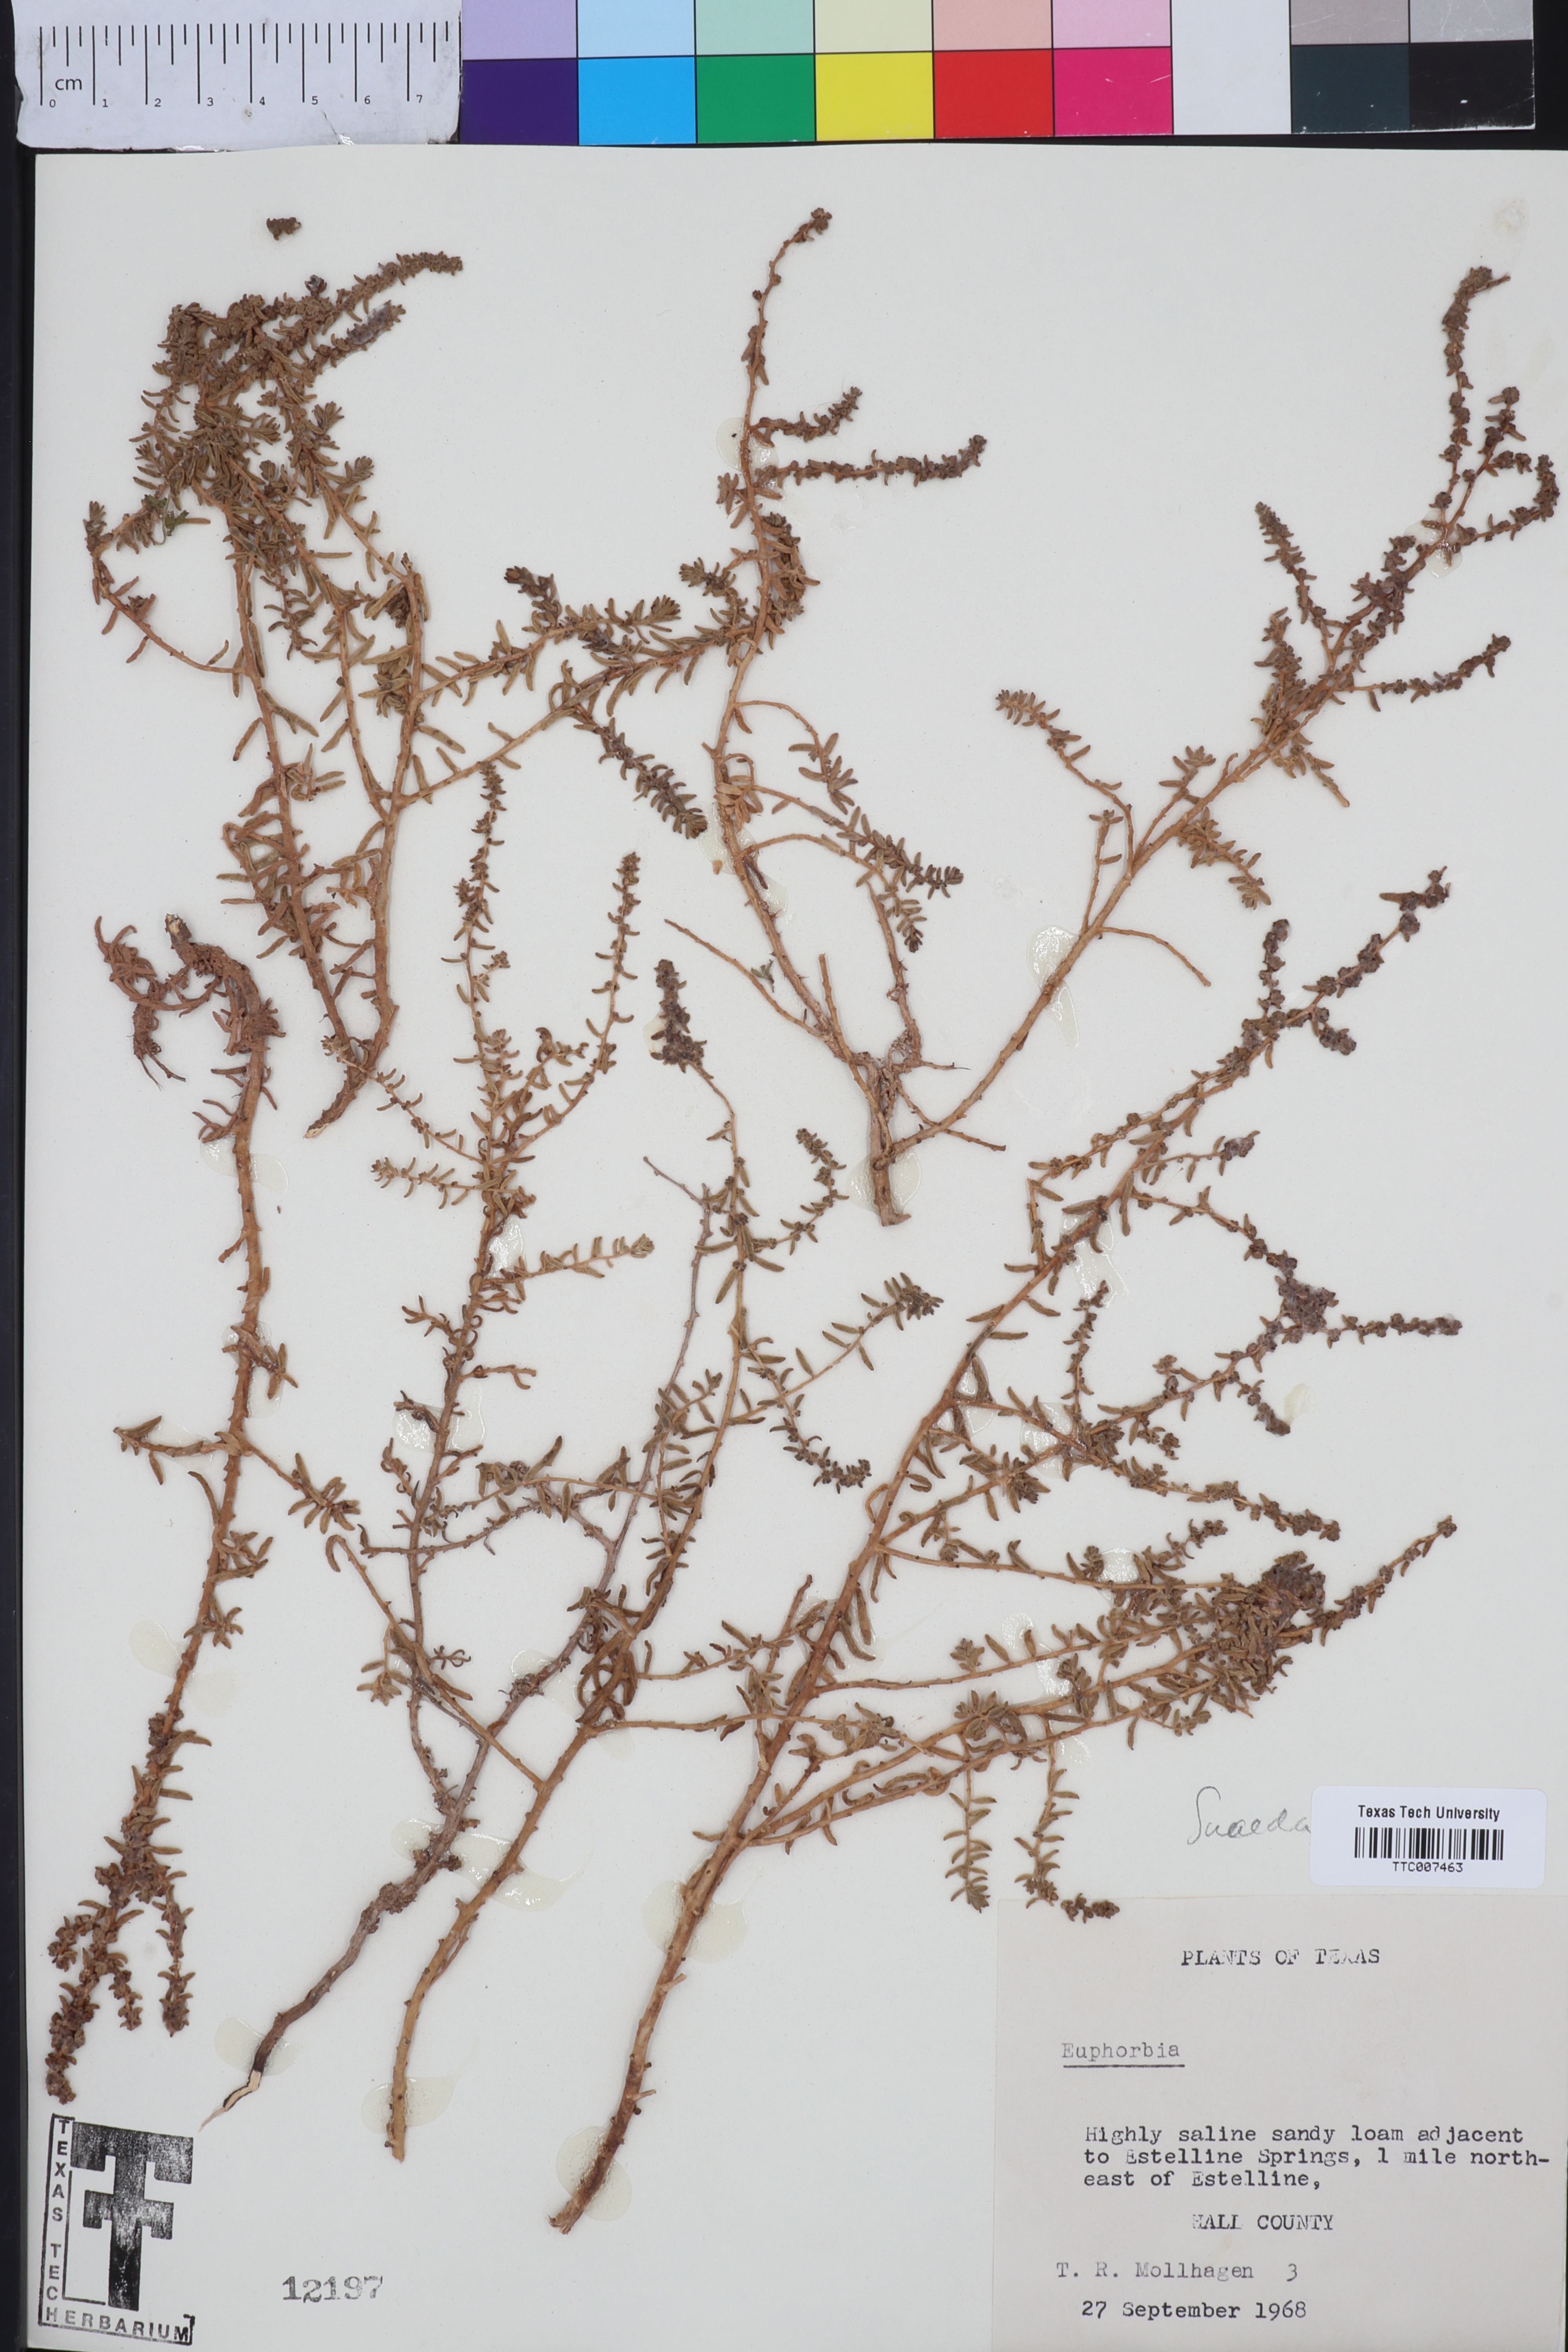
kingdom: Plantae
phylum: Tracheophyta
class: Magnoliopsida
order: Caryophyllales
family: Amaranthaceae
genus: Suaeda
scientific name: Suaeda
